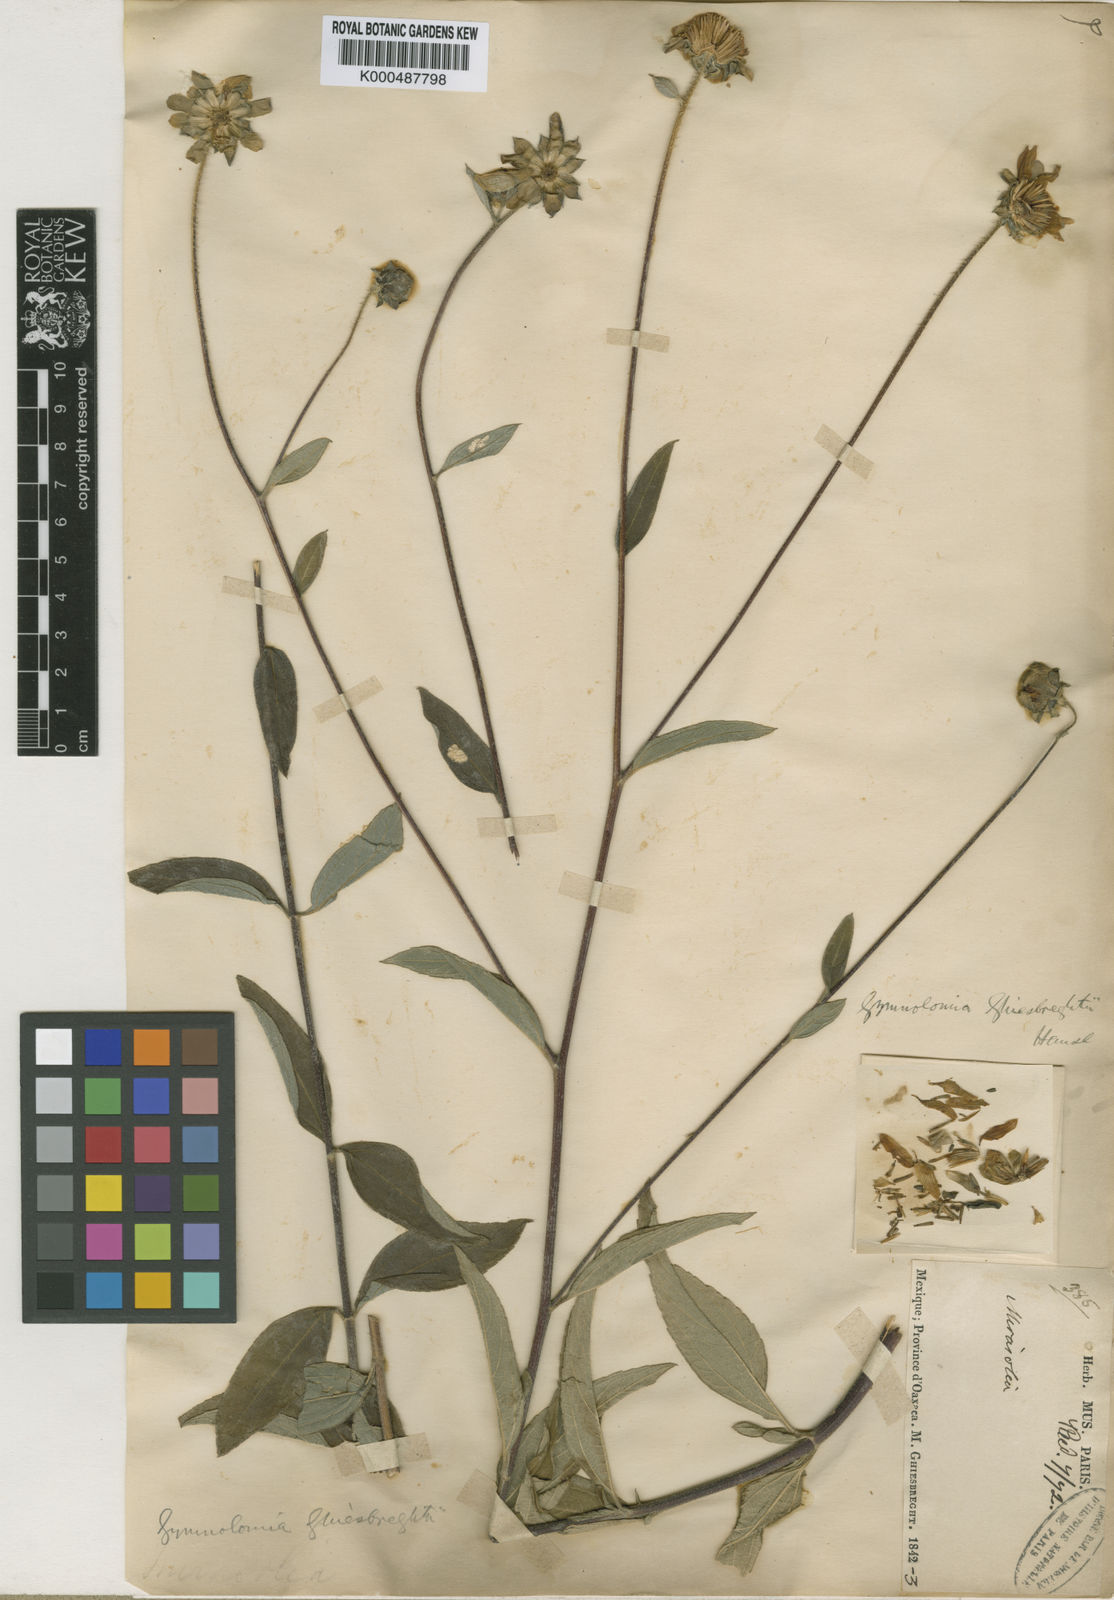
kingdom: Plantae
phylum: Tracheophyta
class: Magnoliopsida
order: Asterales
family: Asteraceae
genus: Aldama
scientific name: Aldama ghiesbreghtii
